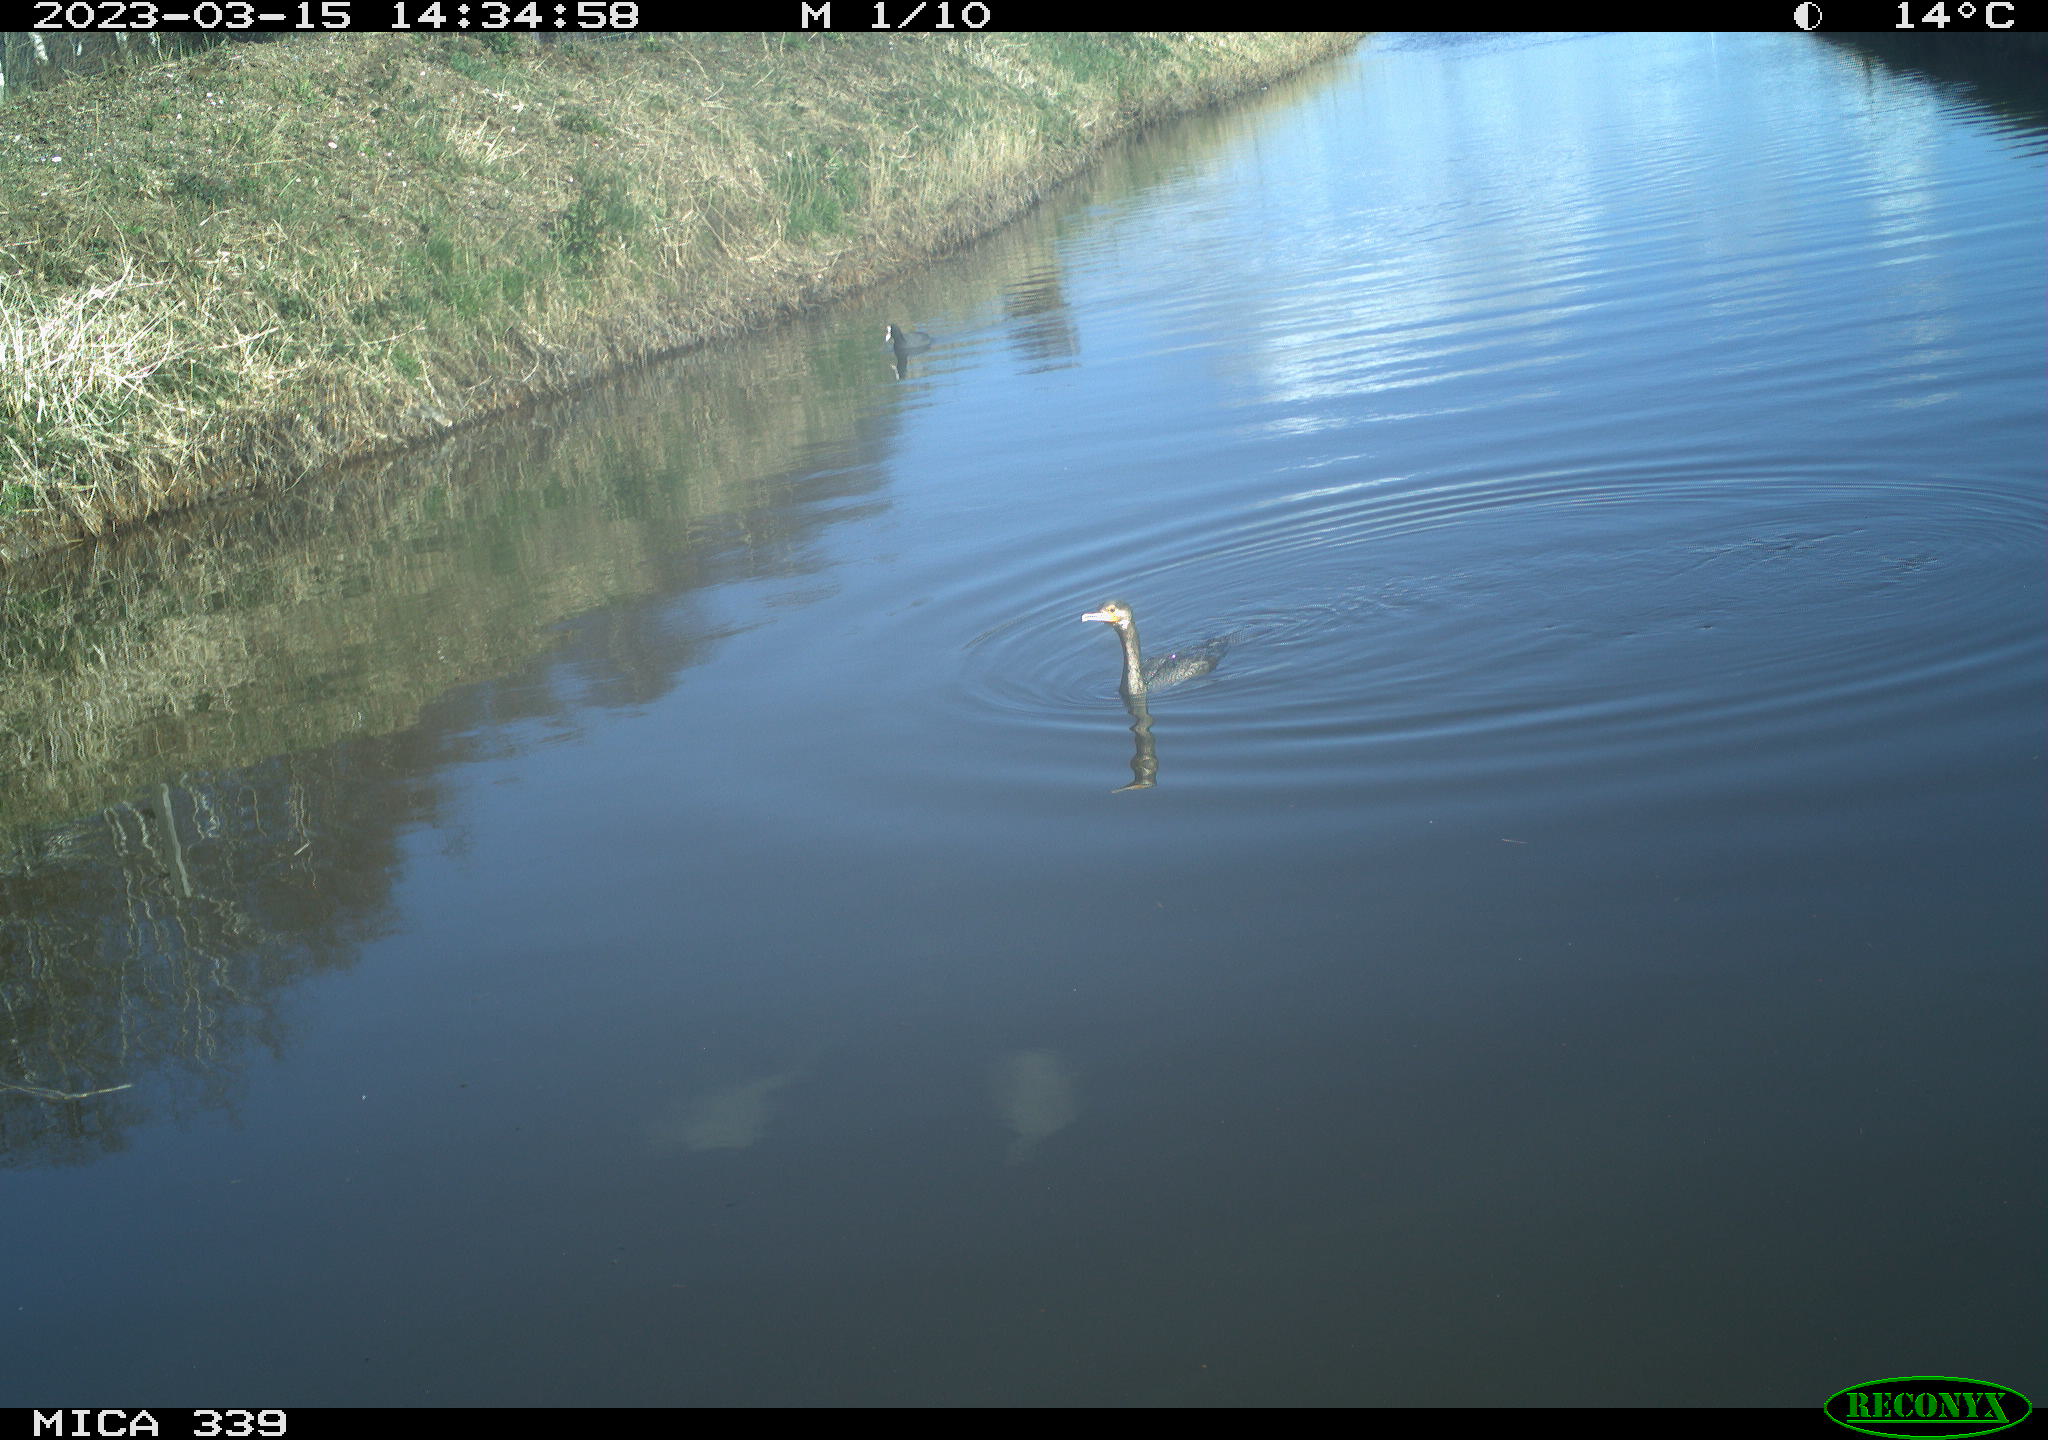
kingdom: Animalia
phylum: Chordata
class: Aves
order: Gruiformes
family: Rallidae
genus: Fulica
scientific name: Fulica atra
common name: Eurasian coot
